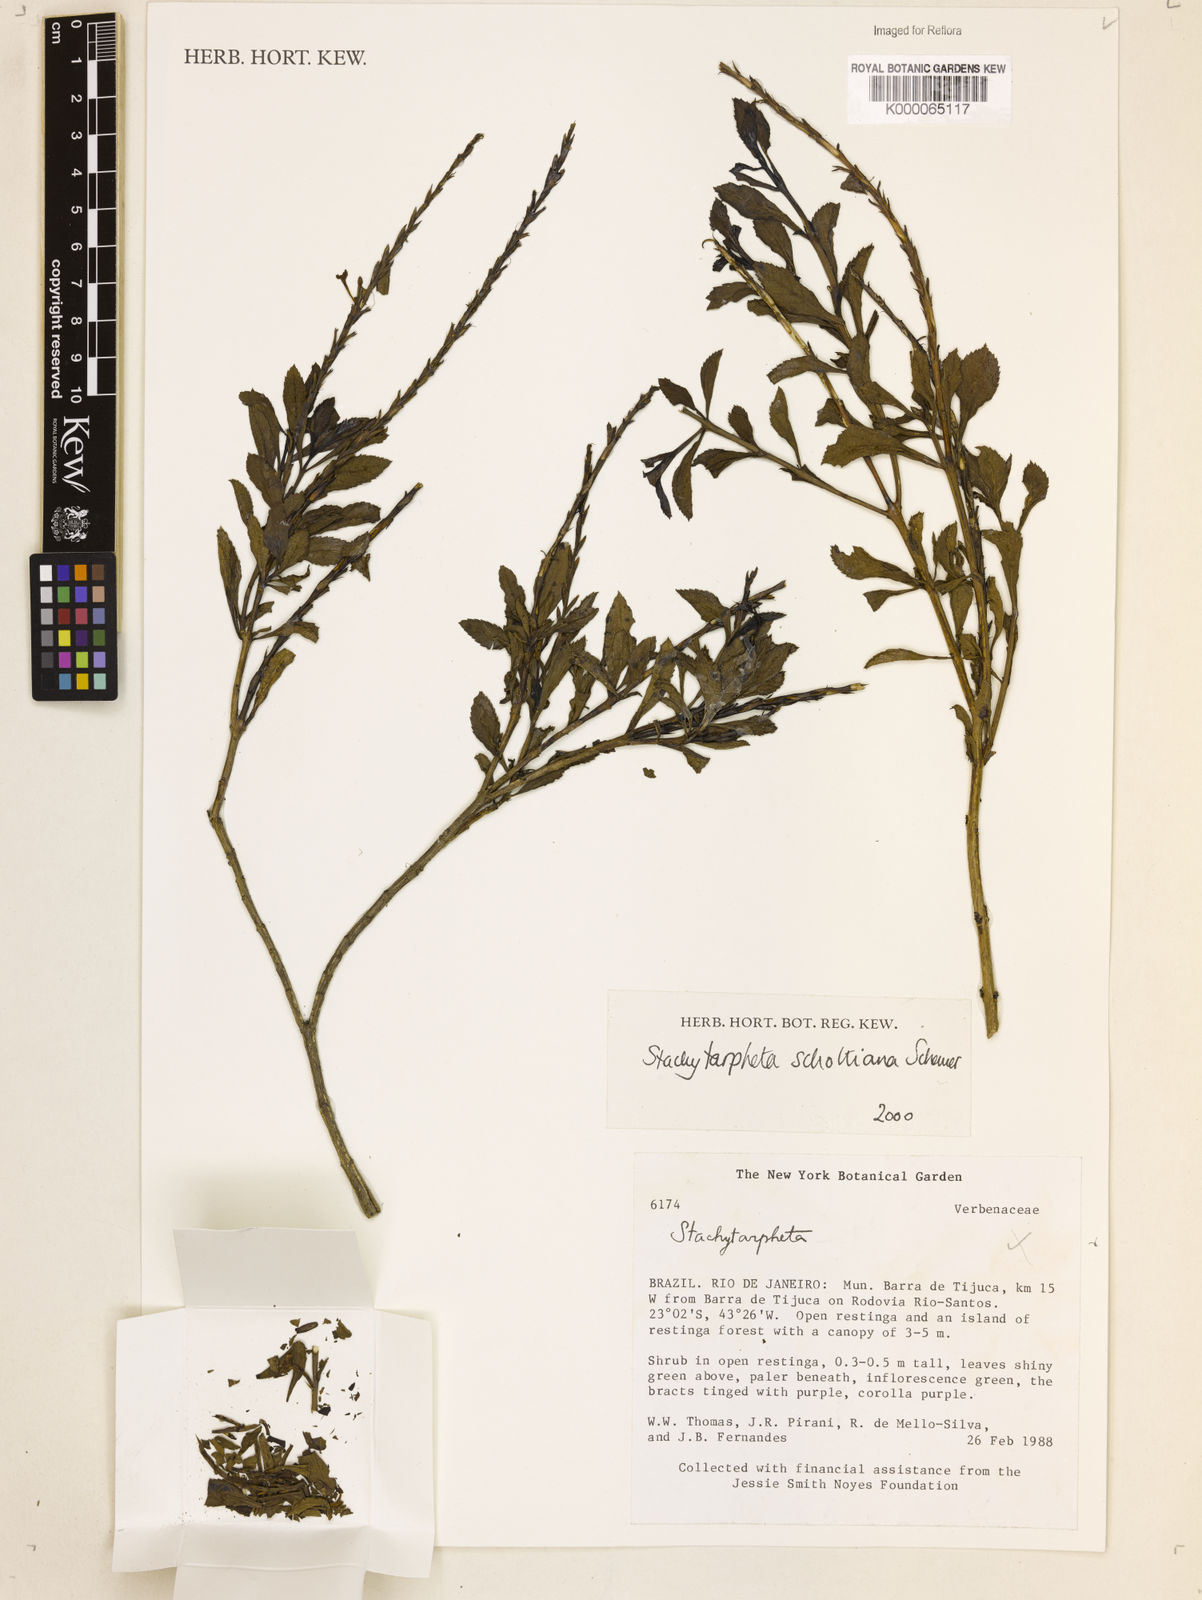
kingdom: Plantae
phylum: Tracheophyta
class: Magnoliopsida
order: Lamiales
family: Verbenaceae
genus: Stachytarpheta
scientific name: Stachytarpheta schottiana
